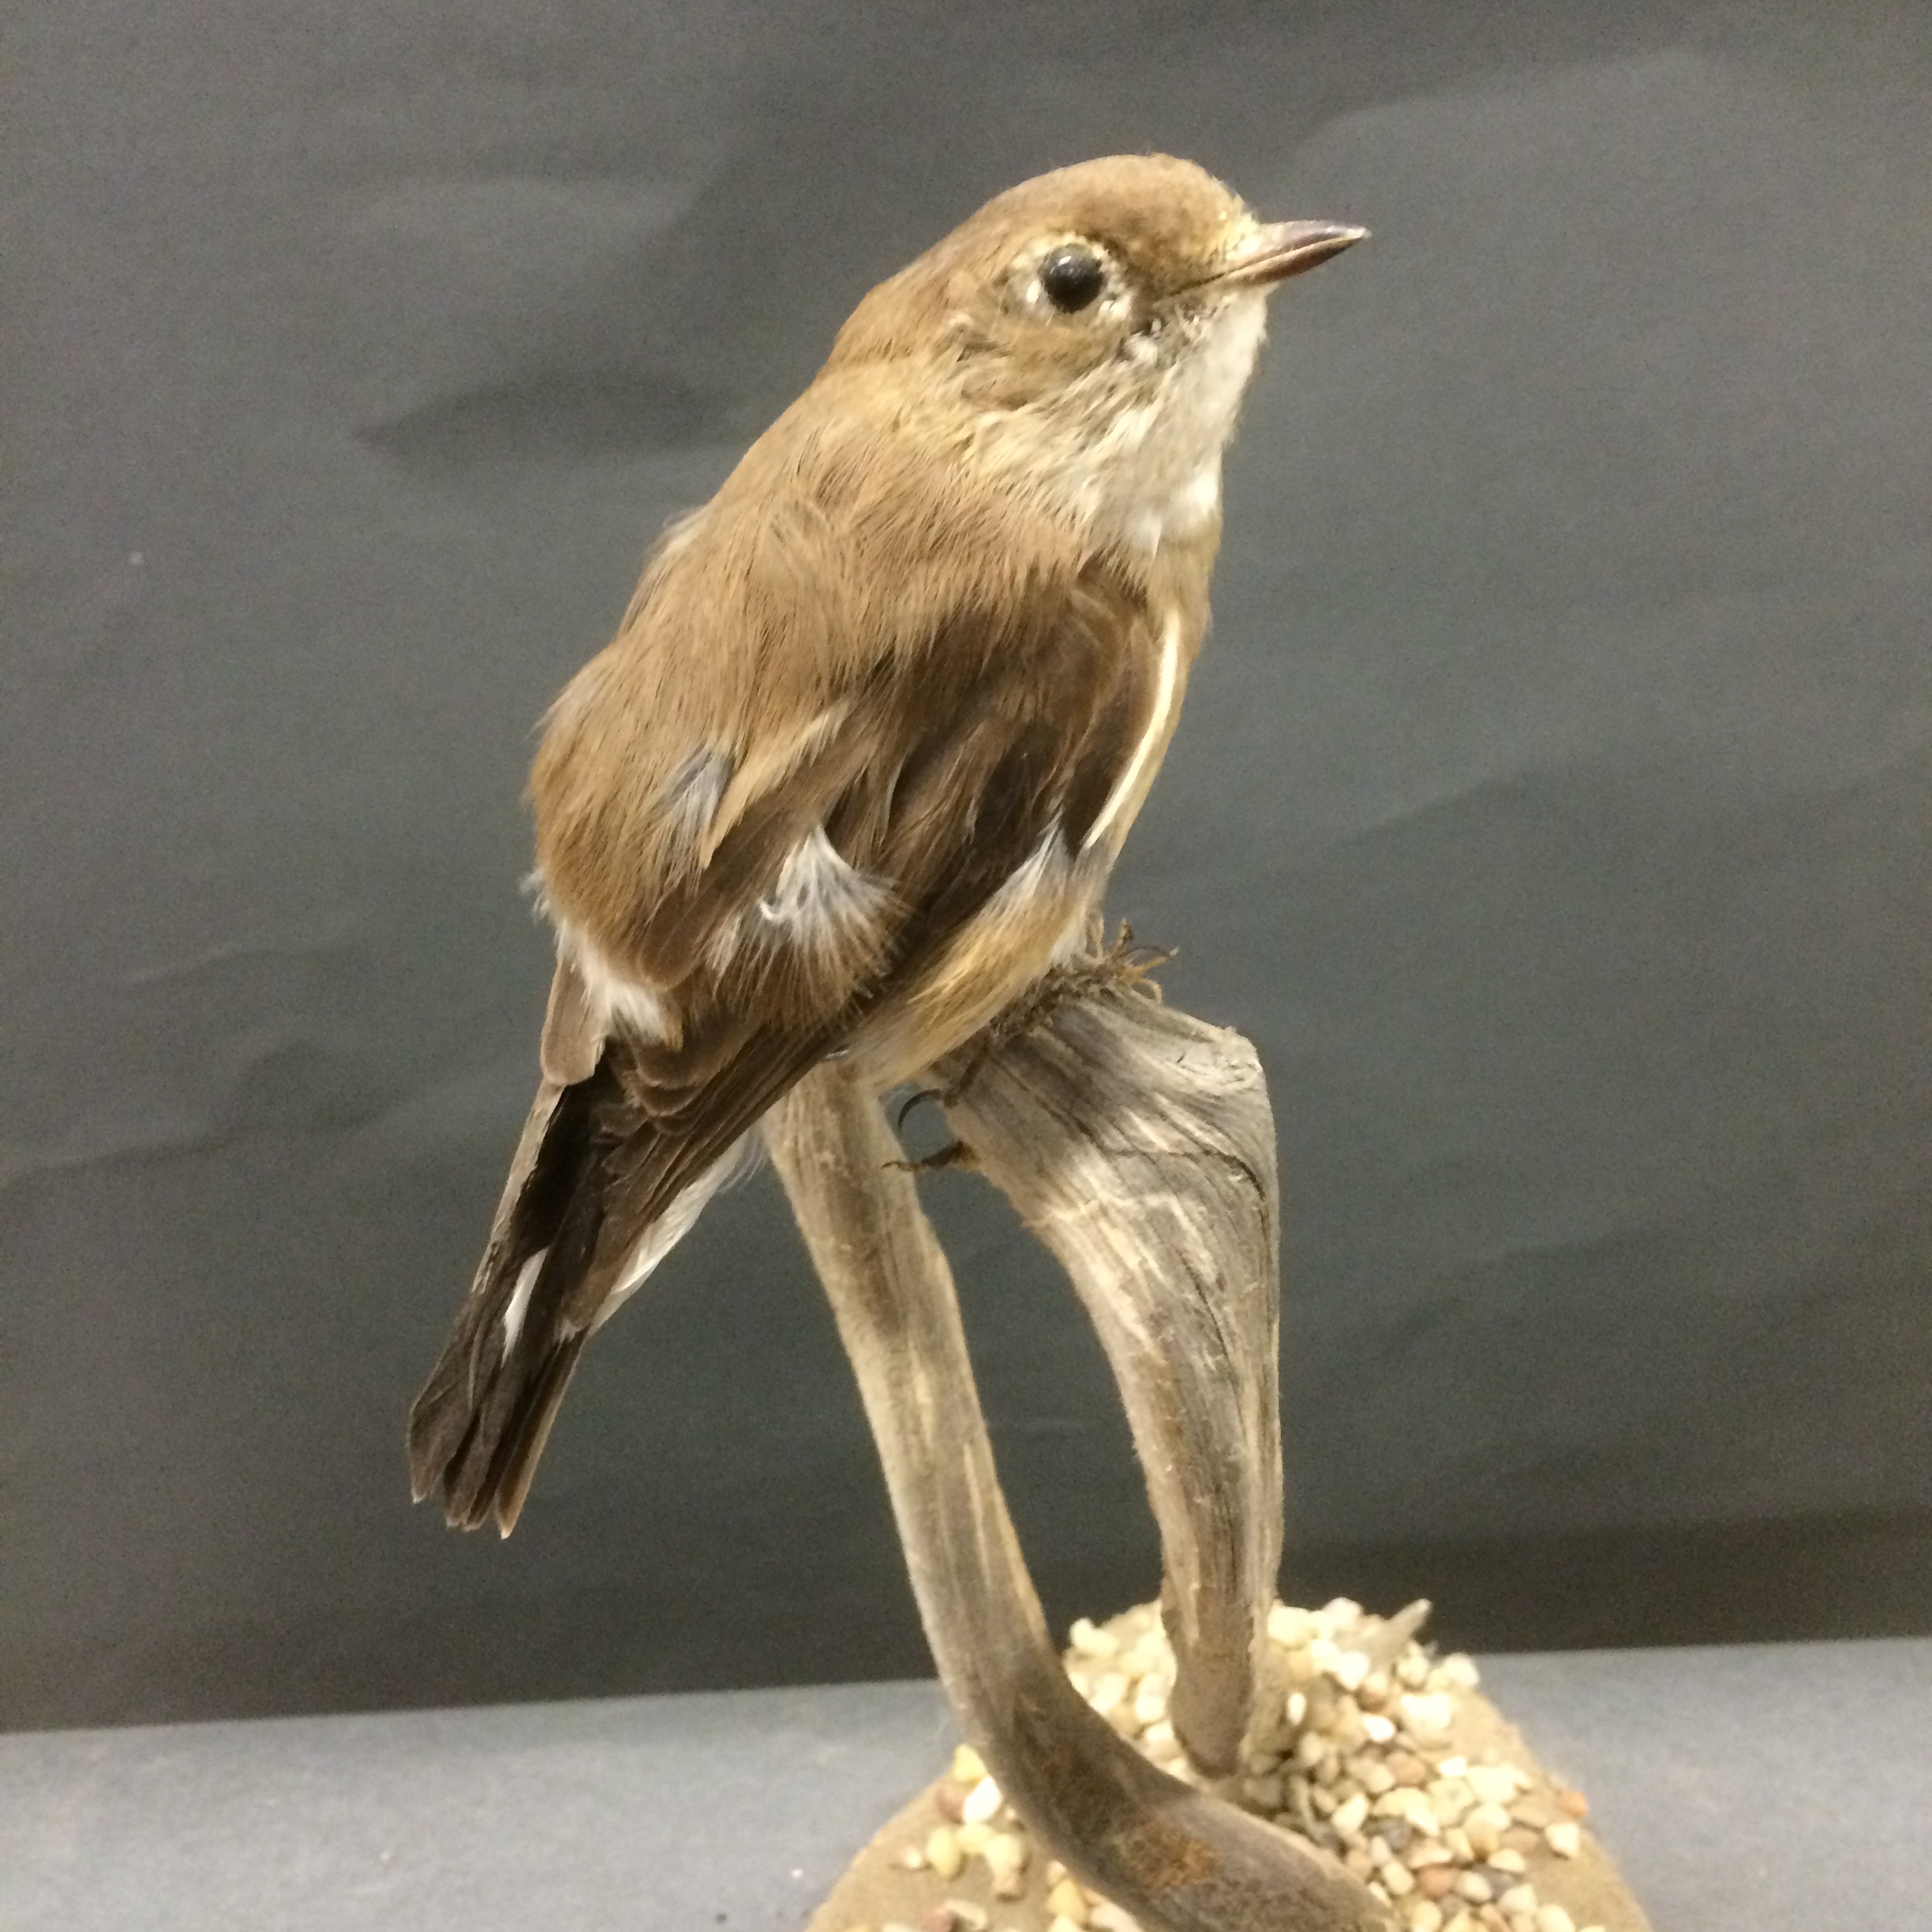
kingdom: Animalia
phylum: Chordata
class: Aves
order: Passeriformes
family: Muscicapidae
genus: Ficedula
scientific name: Ficedula parva
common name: Red-breasted flycatcher
